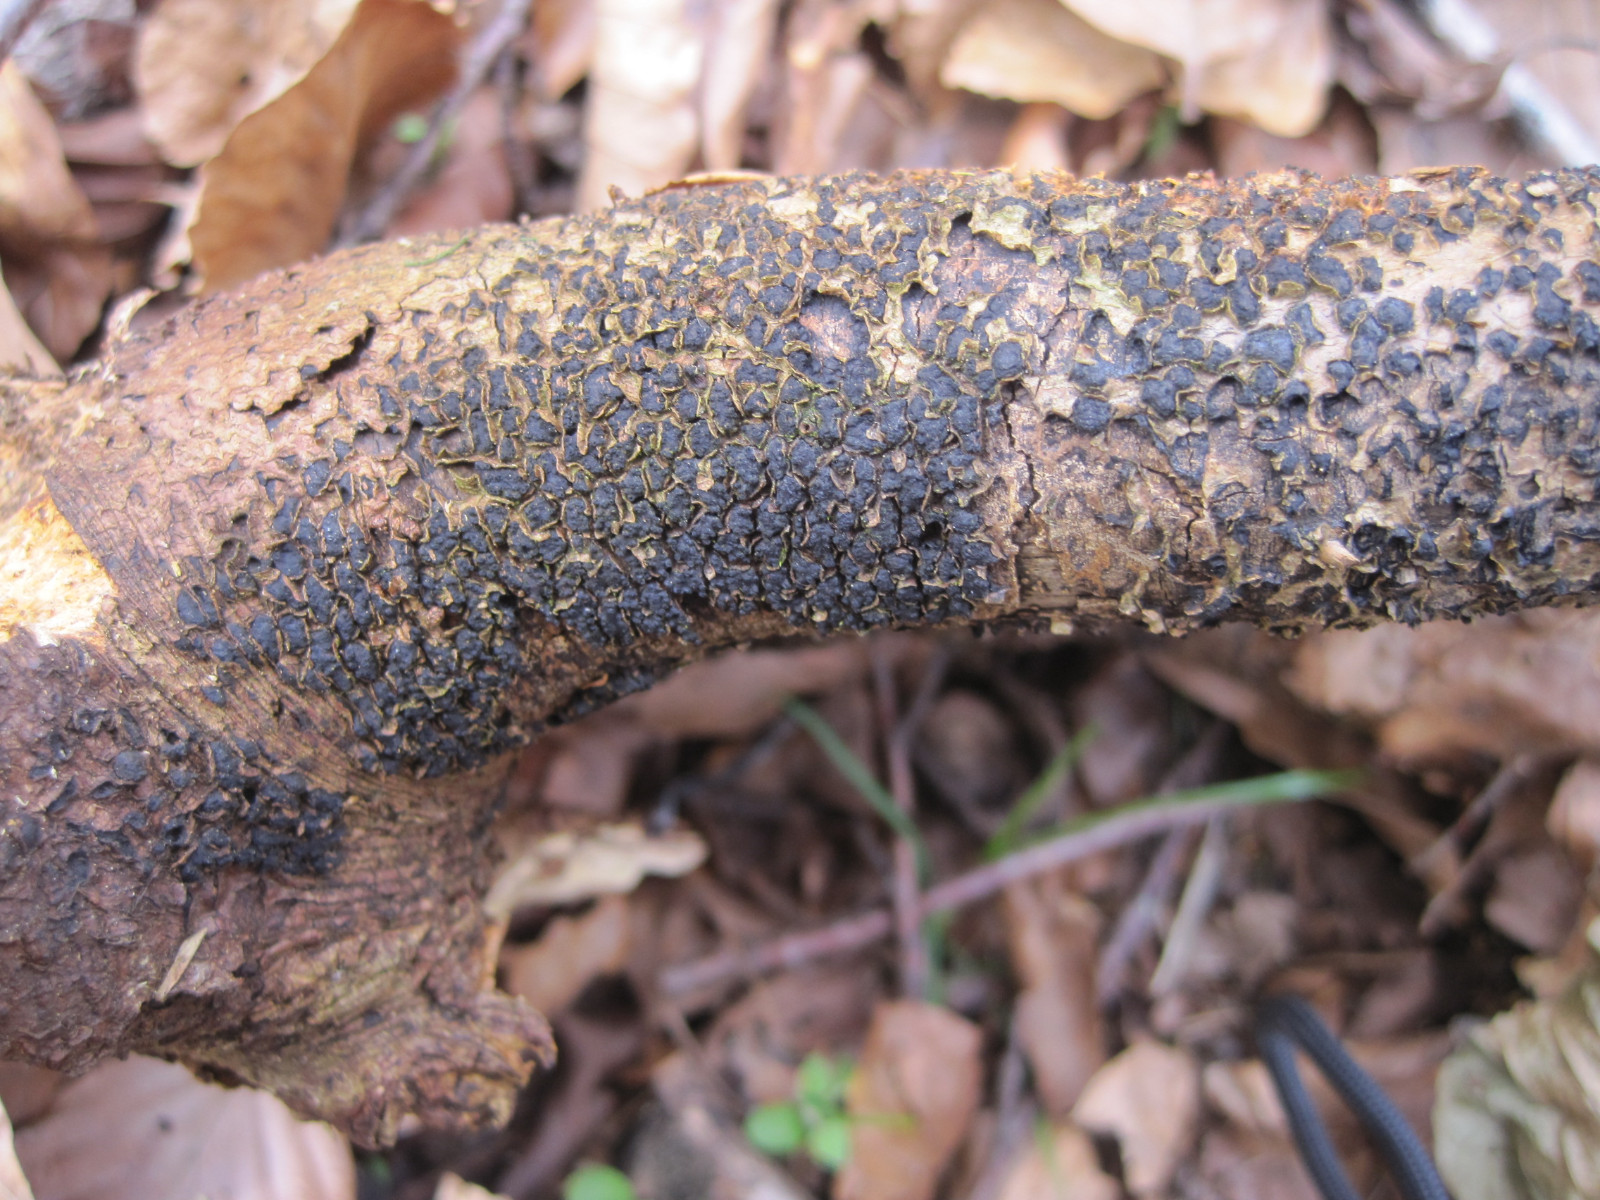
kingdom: Fungi
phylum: Ascomycota
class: Sordariomycetes
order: Xylariales
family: Melogrammataceae
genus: Melogramma
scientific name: Melogramma spiniferum
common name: bøgefod-kulhals
